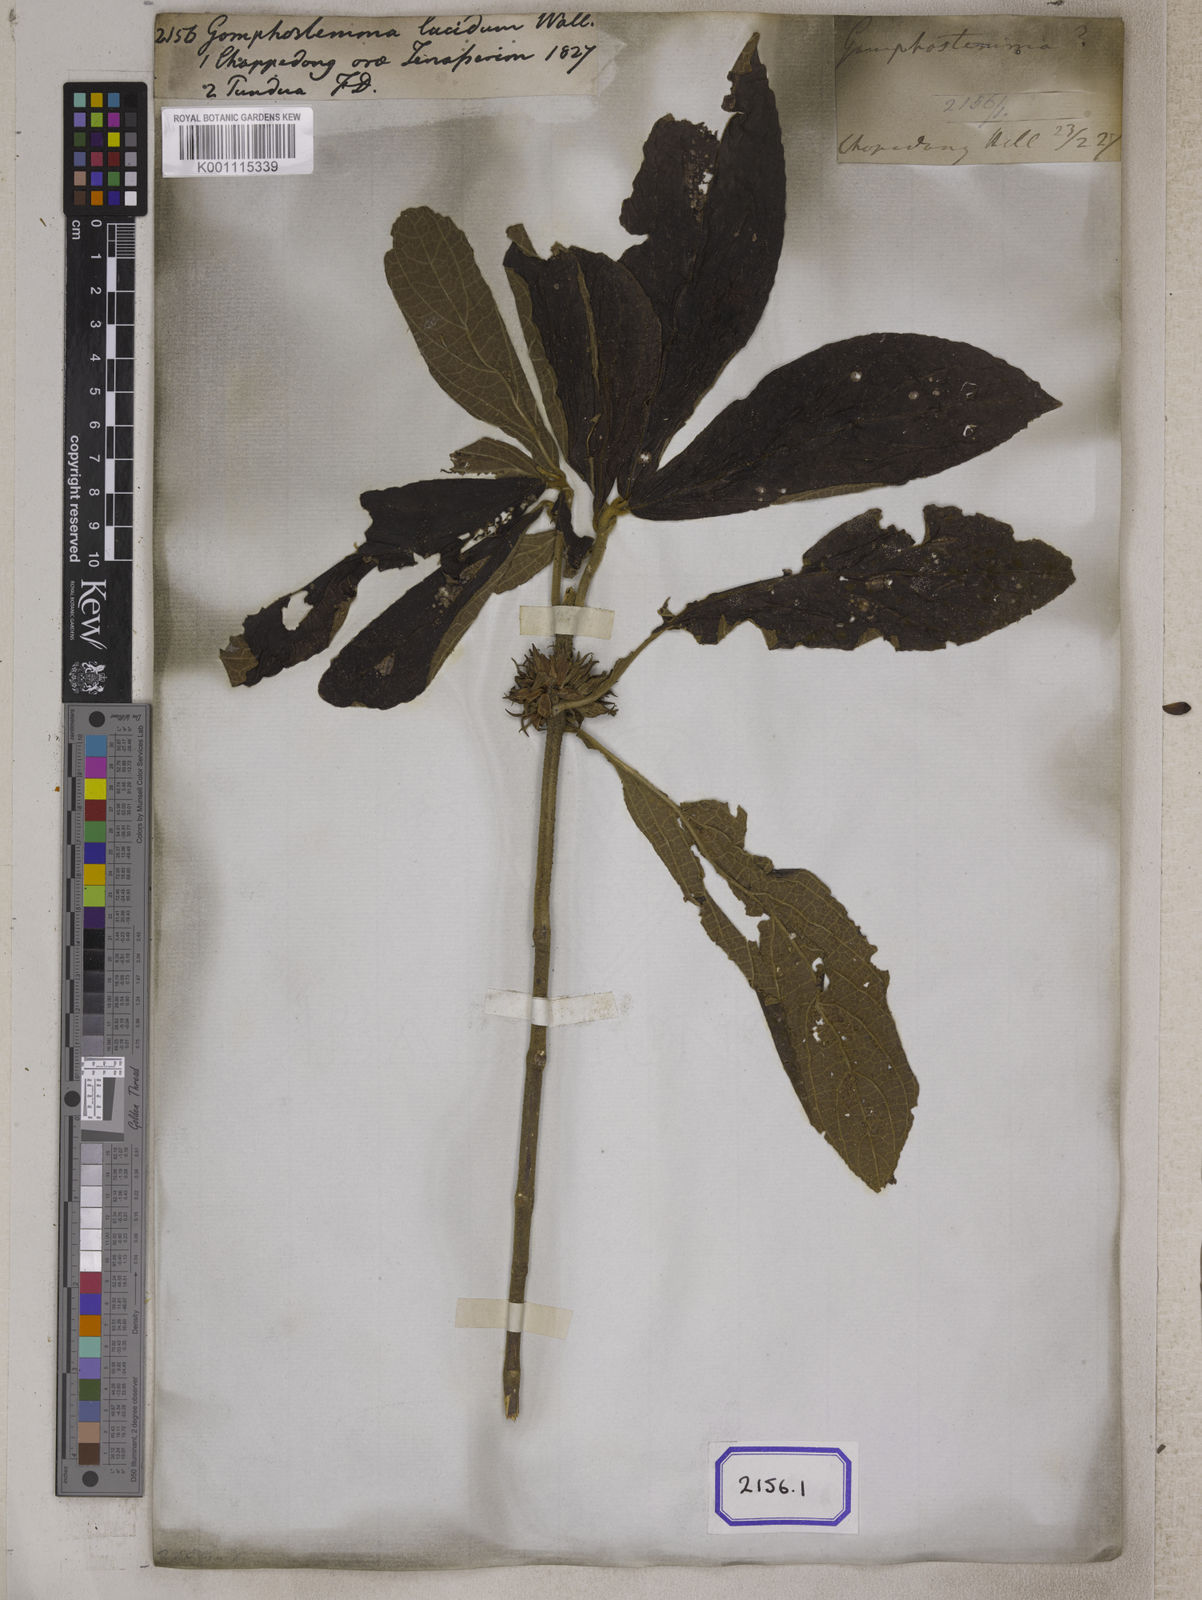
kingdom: Plantae
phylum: Tracheophyta
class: Magnoliopsida
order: Lamiales
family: Lamiaceae
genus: Gomphostemma
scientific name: Gomphostemma
